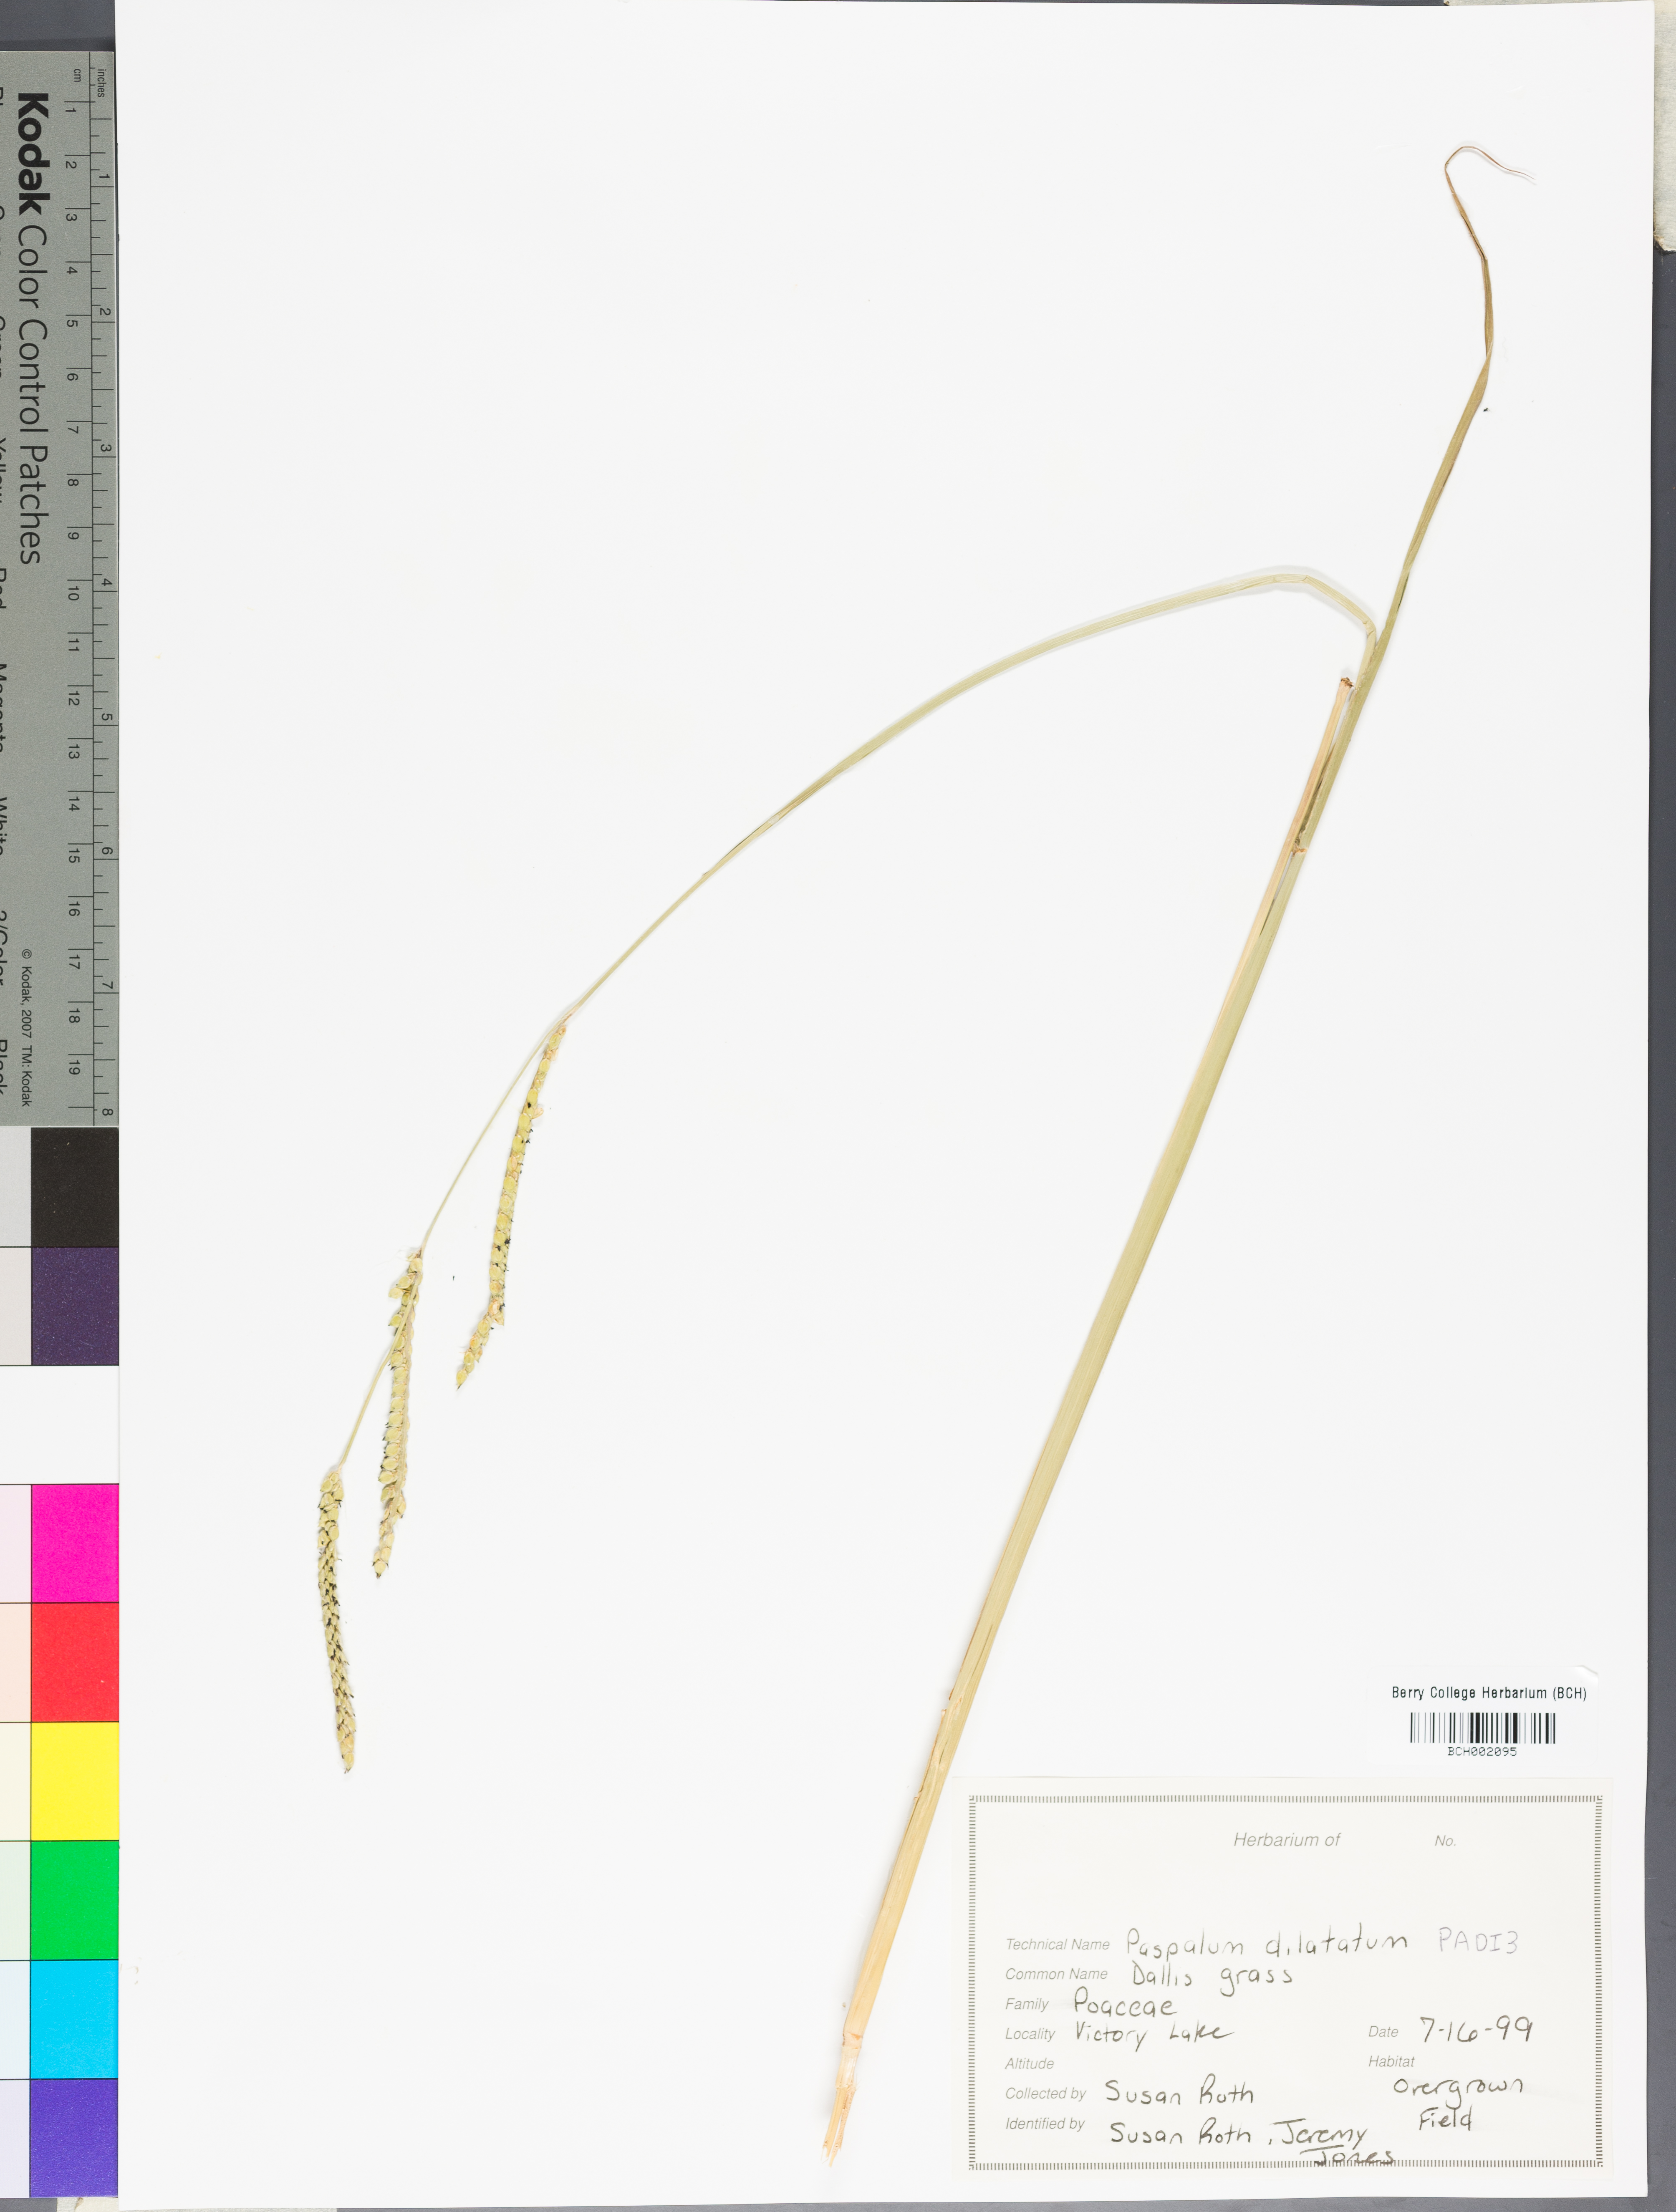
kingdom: Plantae
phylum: Tracheophyta
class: Liliopsida
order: Poales
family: Poaceae
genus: Paspalum
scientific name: Paspalum dilatatum
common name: Dallisgrass
